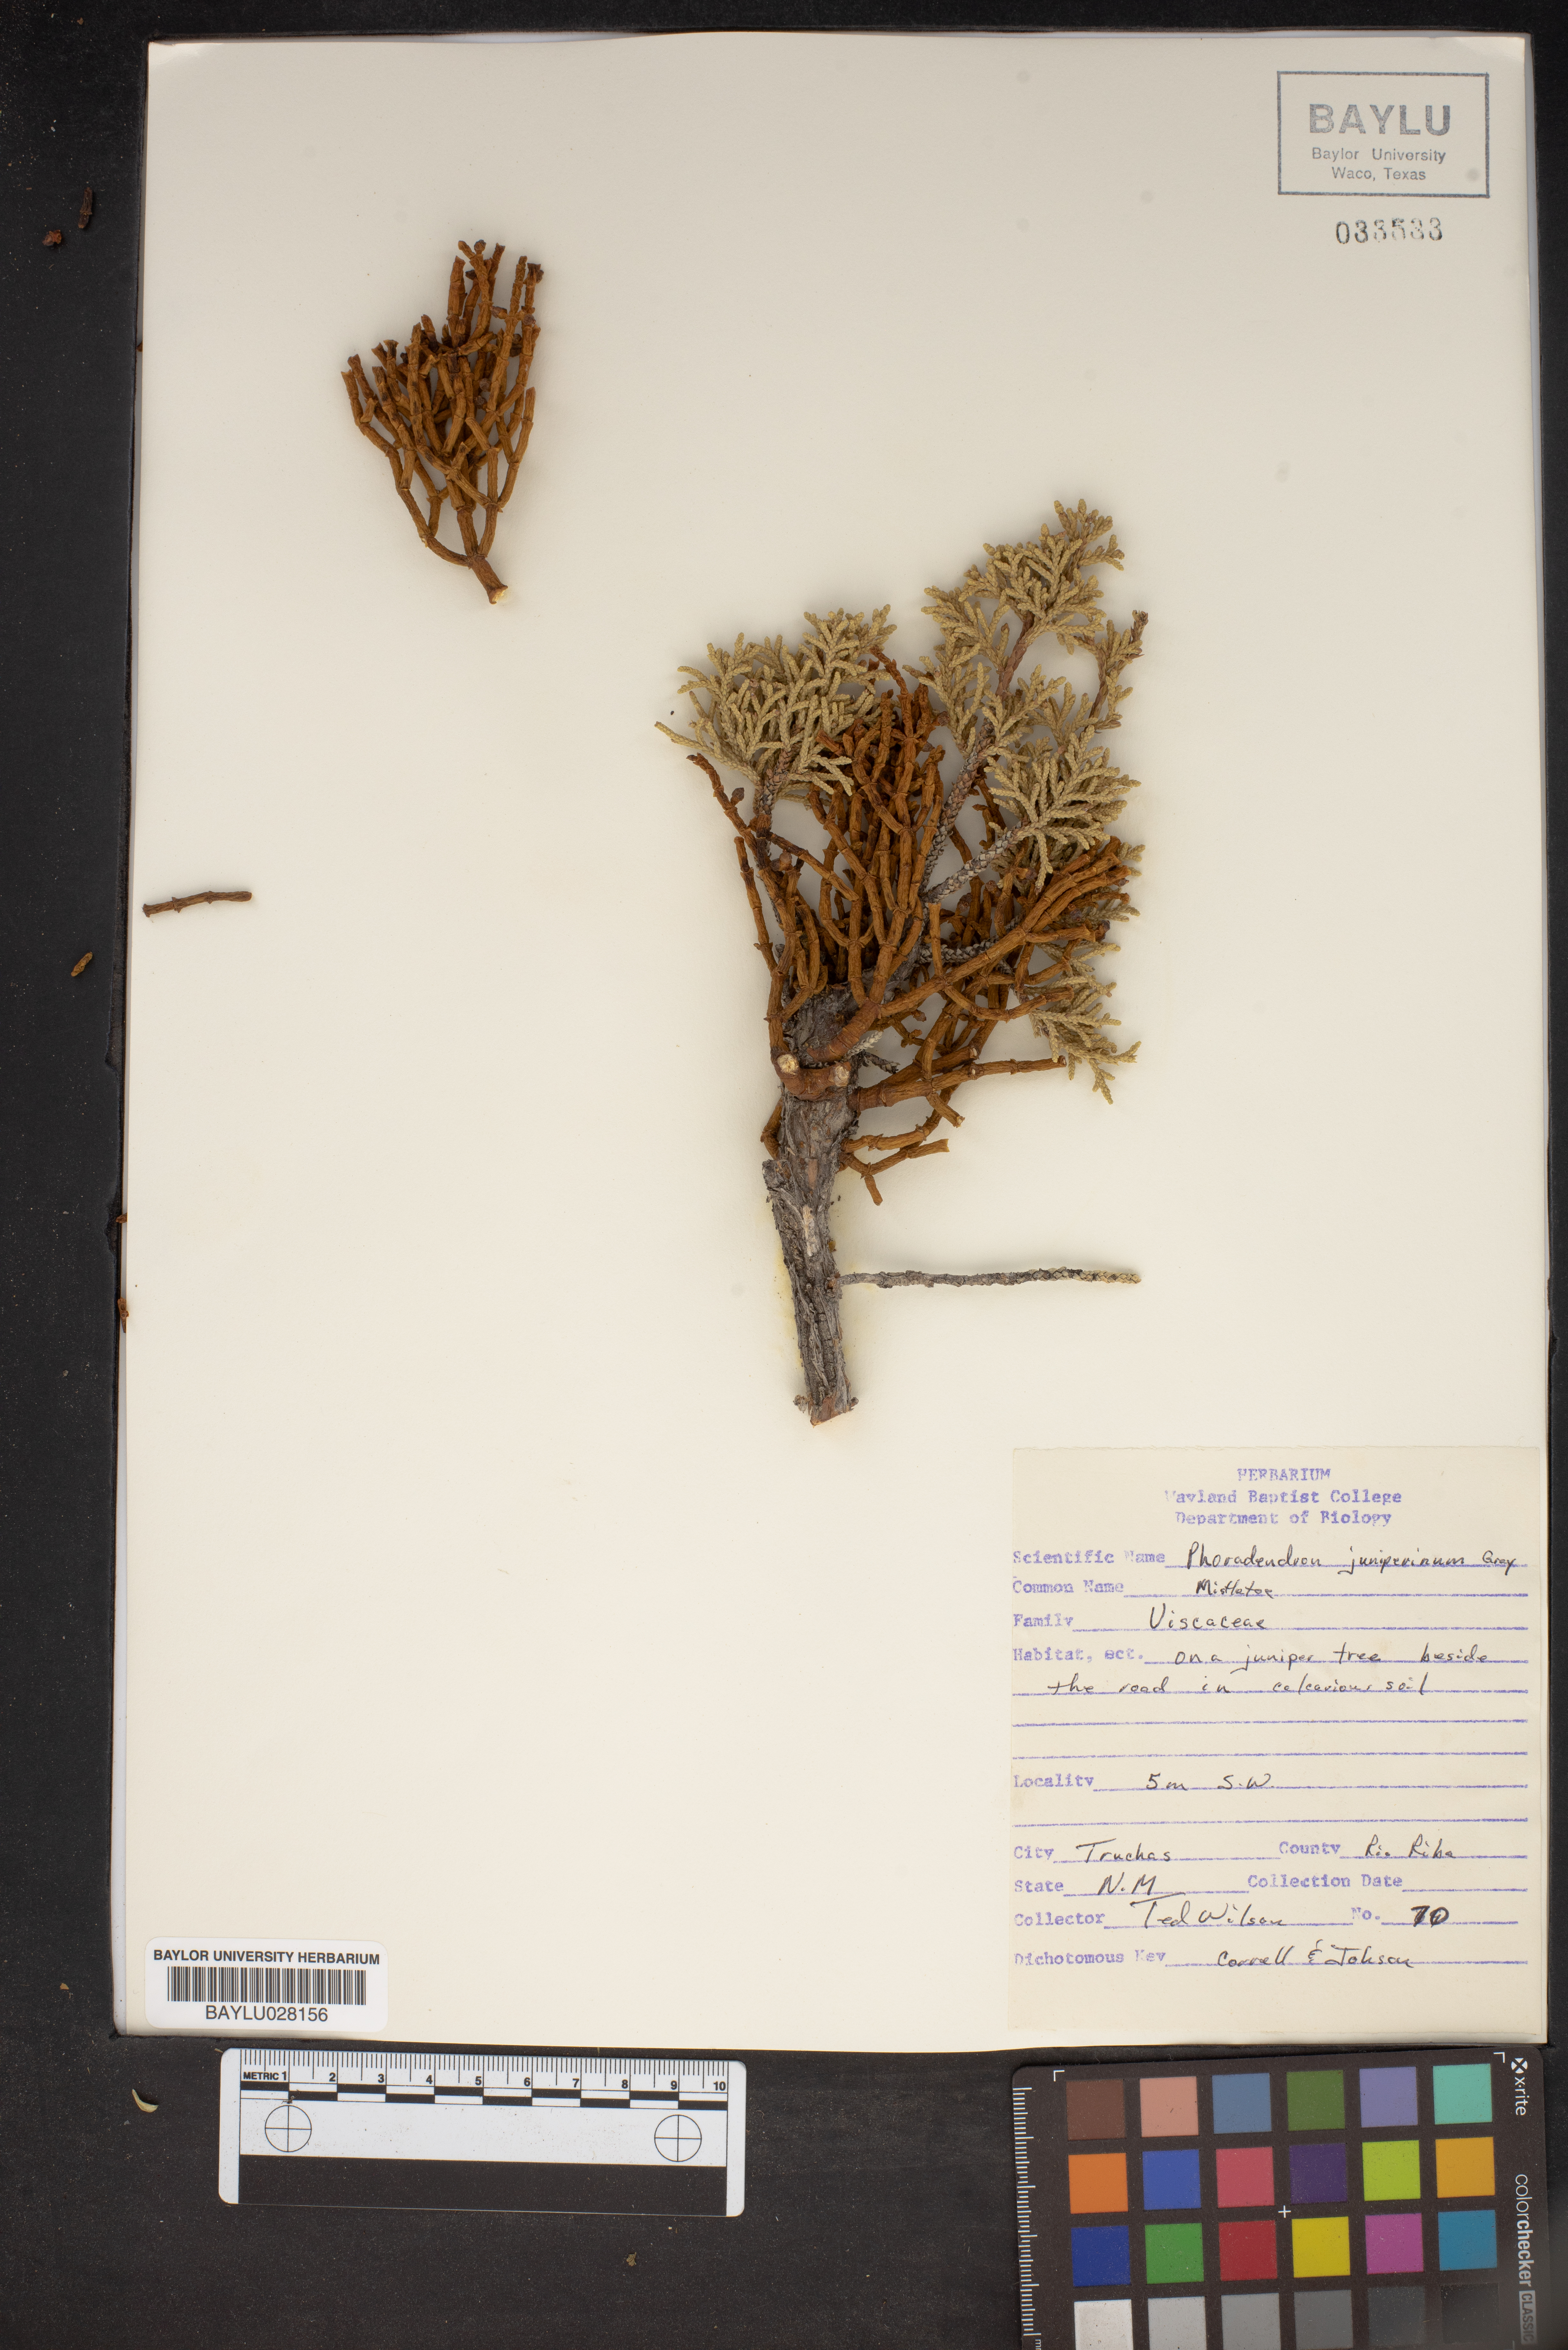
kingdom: Plantae
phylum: Tracheophyta
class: Magnoliopsida
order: Santalales
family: Viscaceae
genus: Phoradendron
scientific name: Phoradendron juniperinum
